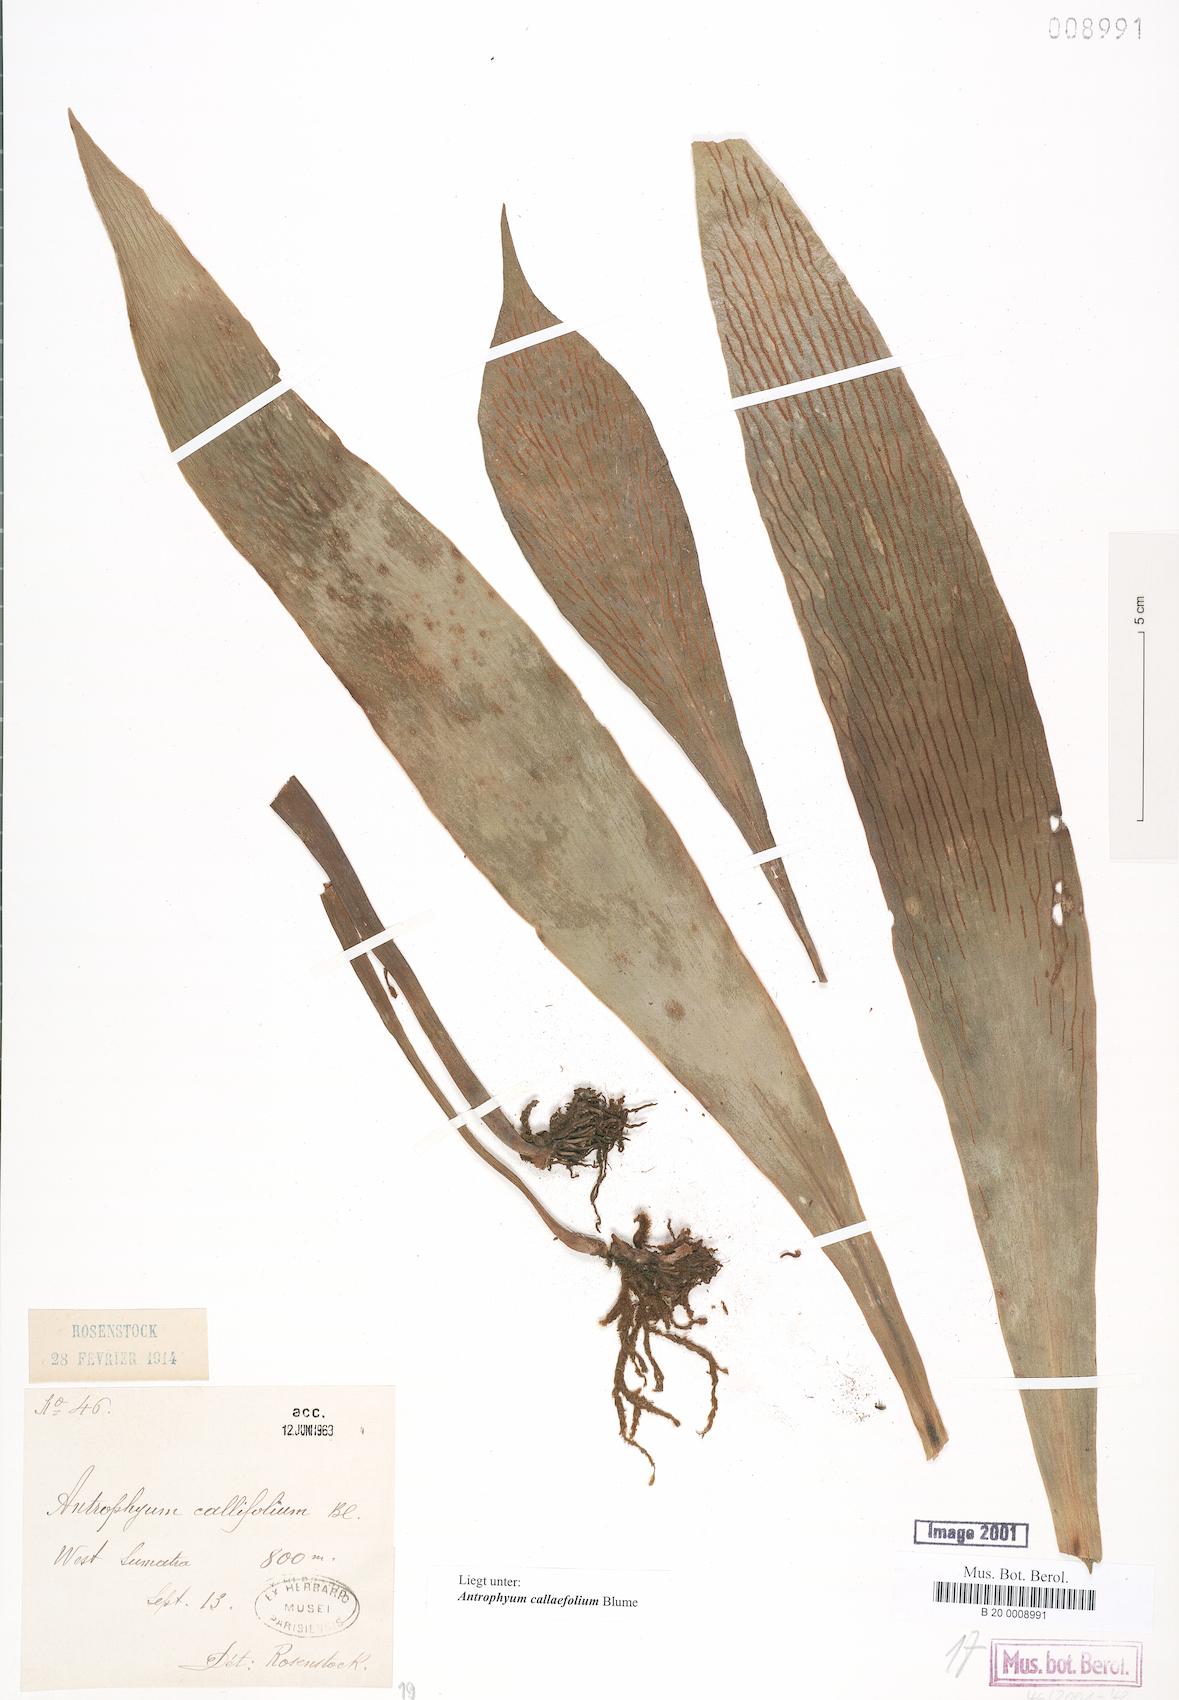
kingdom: Plantae
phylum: Tracheophyta
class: Polypodiopsida
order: Polypodiales
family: Pteridaceae
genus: Antrophyum
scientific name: Antrophyum callifolium
